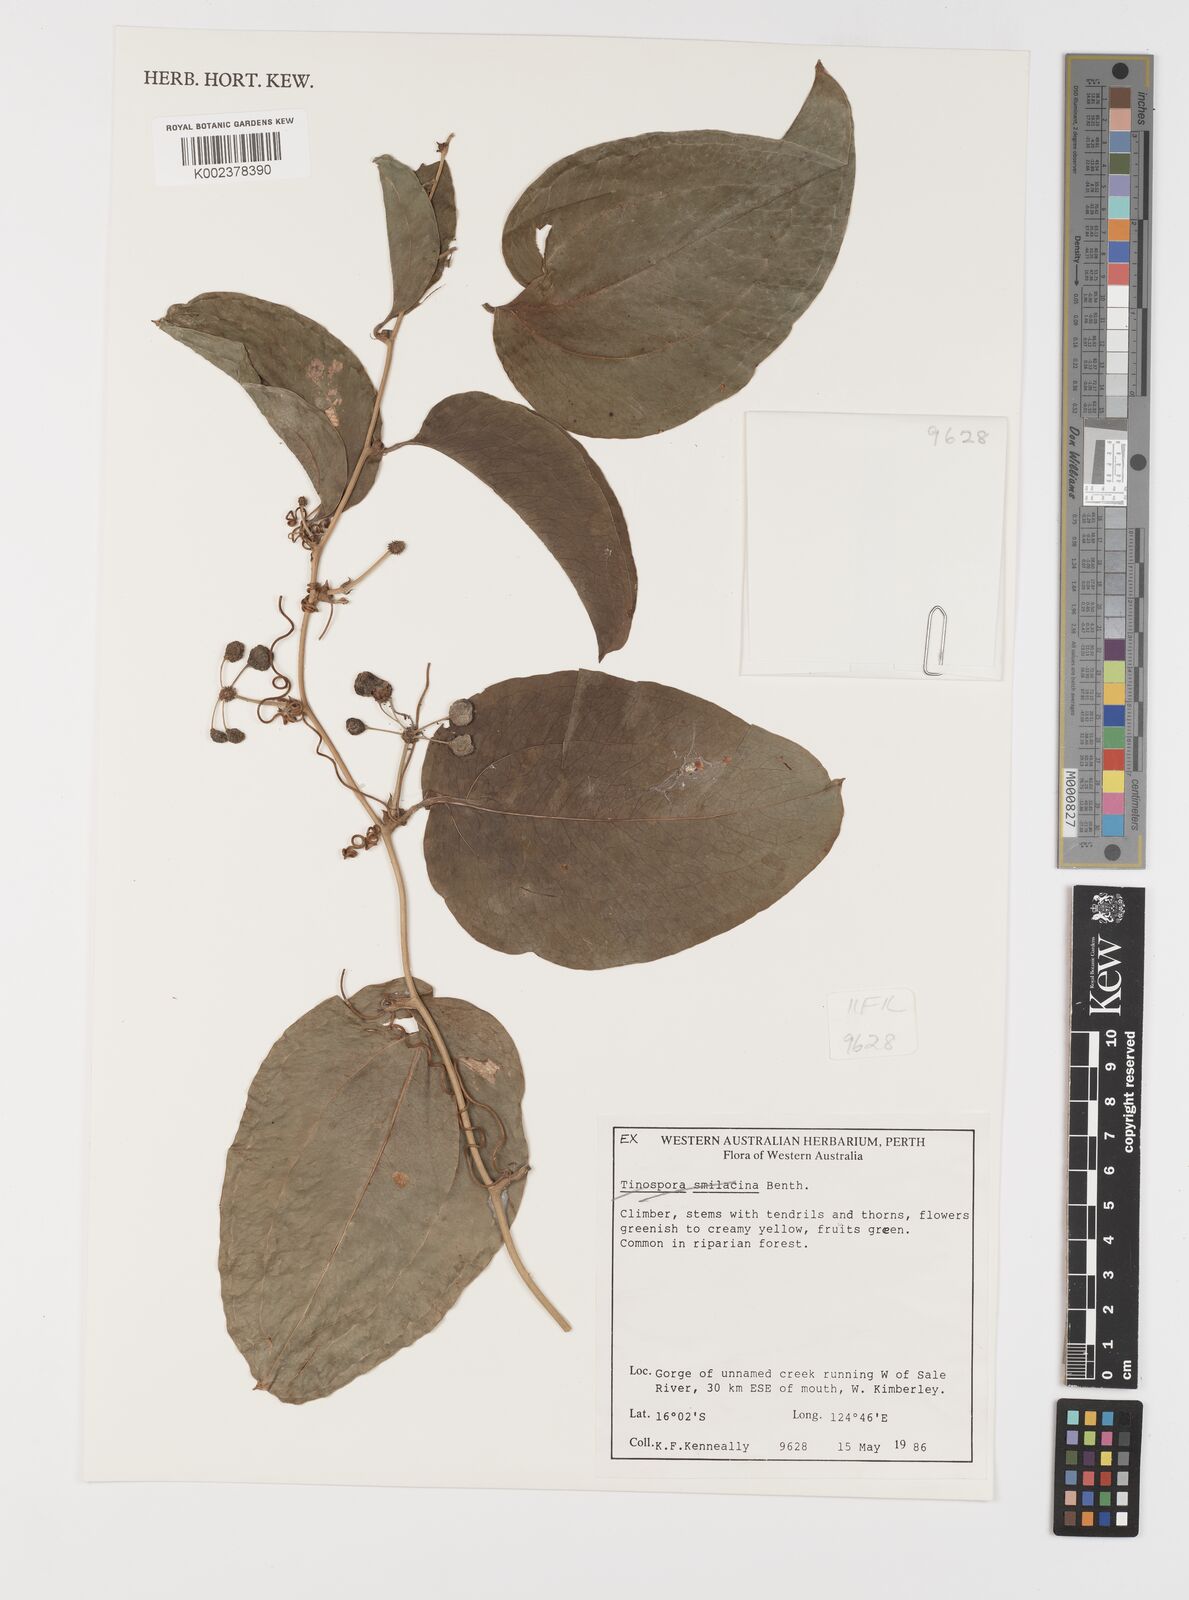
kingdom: Plantae
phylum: Tracheophyta
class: Liliopsida
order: Liliales
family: Smilacaceae
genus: Smilax
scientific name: Smilax
